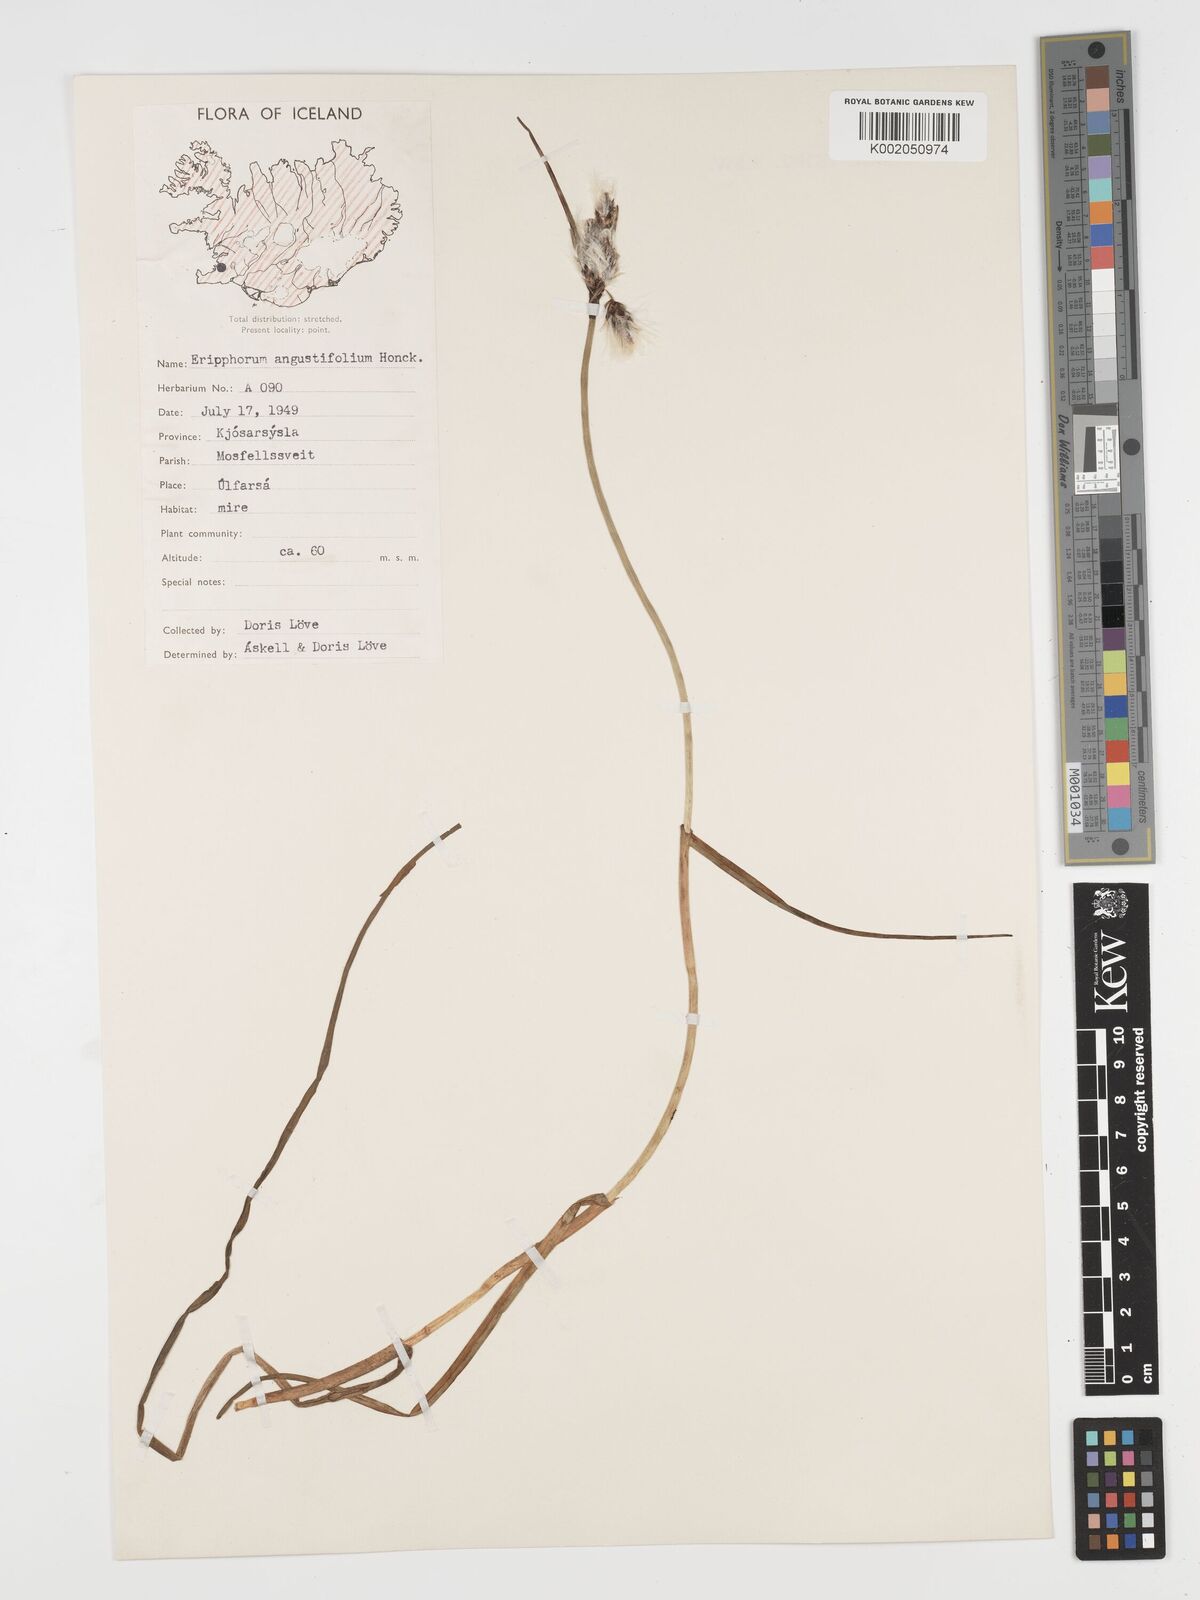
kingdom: Plantae
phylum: Tracheophyta
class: Liliopsida
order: Poales
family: Cyperaceae
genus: Eriophorum
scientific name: Eriophorum angustifolium
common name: Common cottongrass
